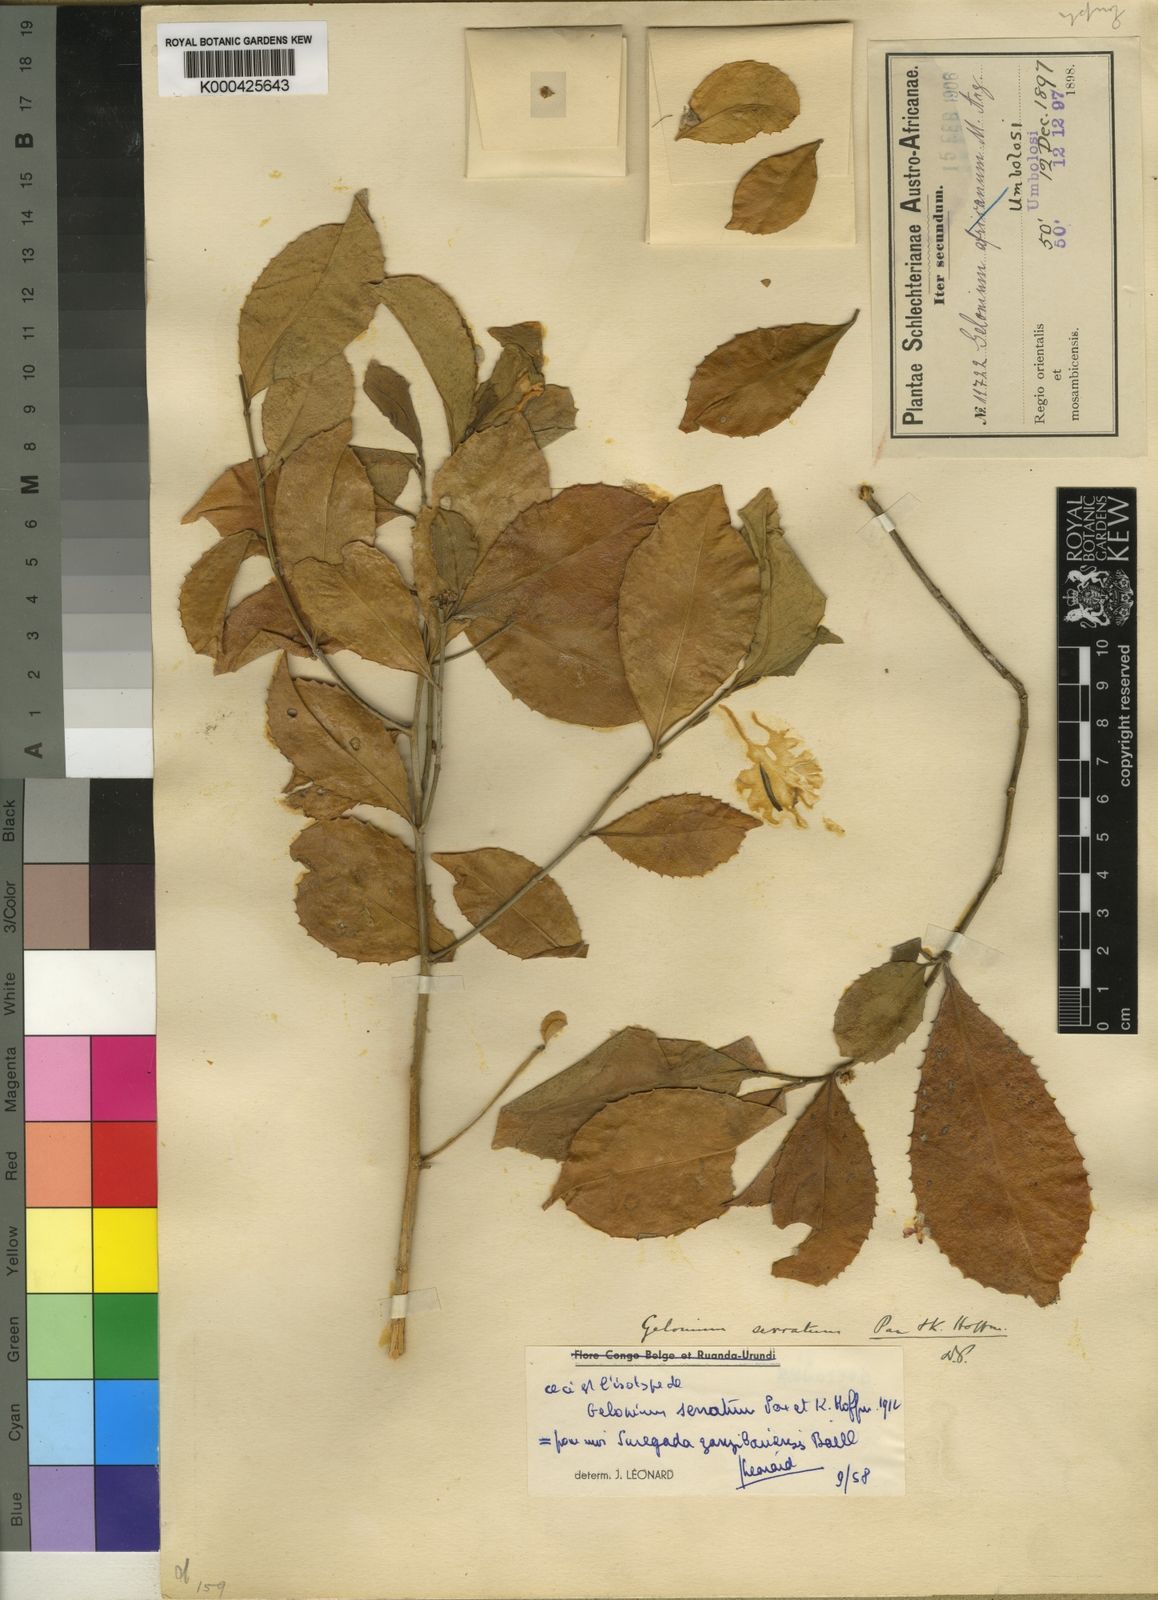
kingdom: Plantae
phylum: Tracheophyta
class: Magnoliopsida
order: Malpighiales
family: Euphorbiaceae
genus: Suregada
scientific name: Suregada
